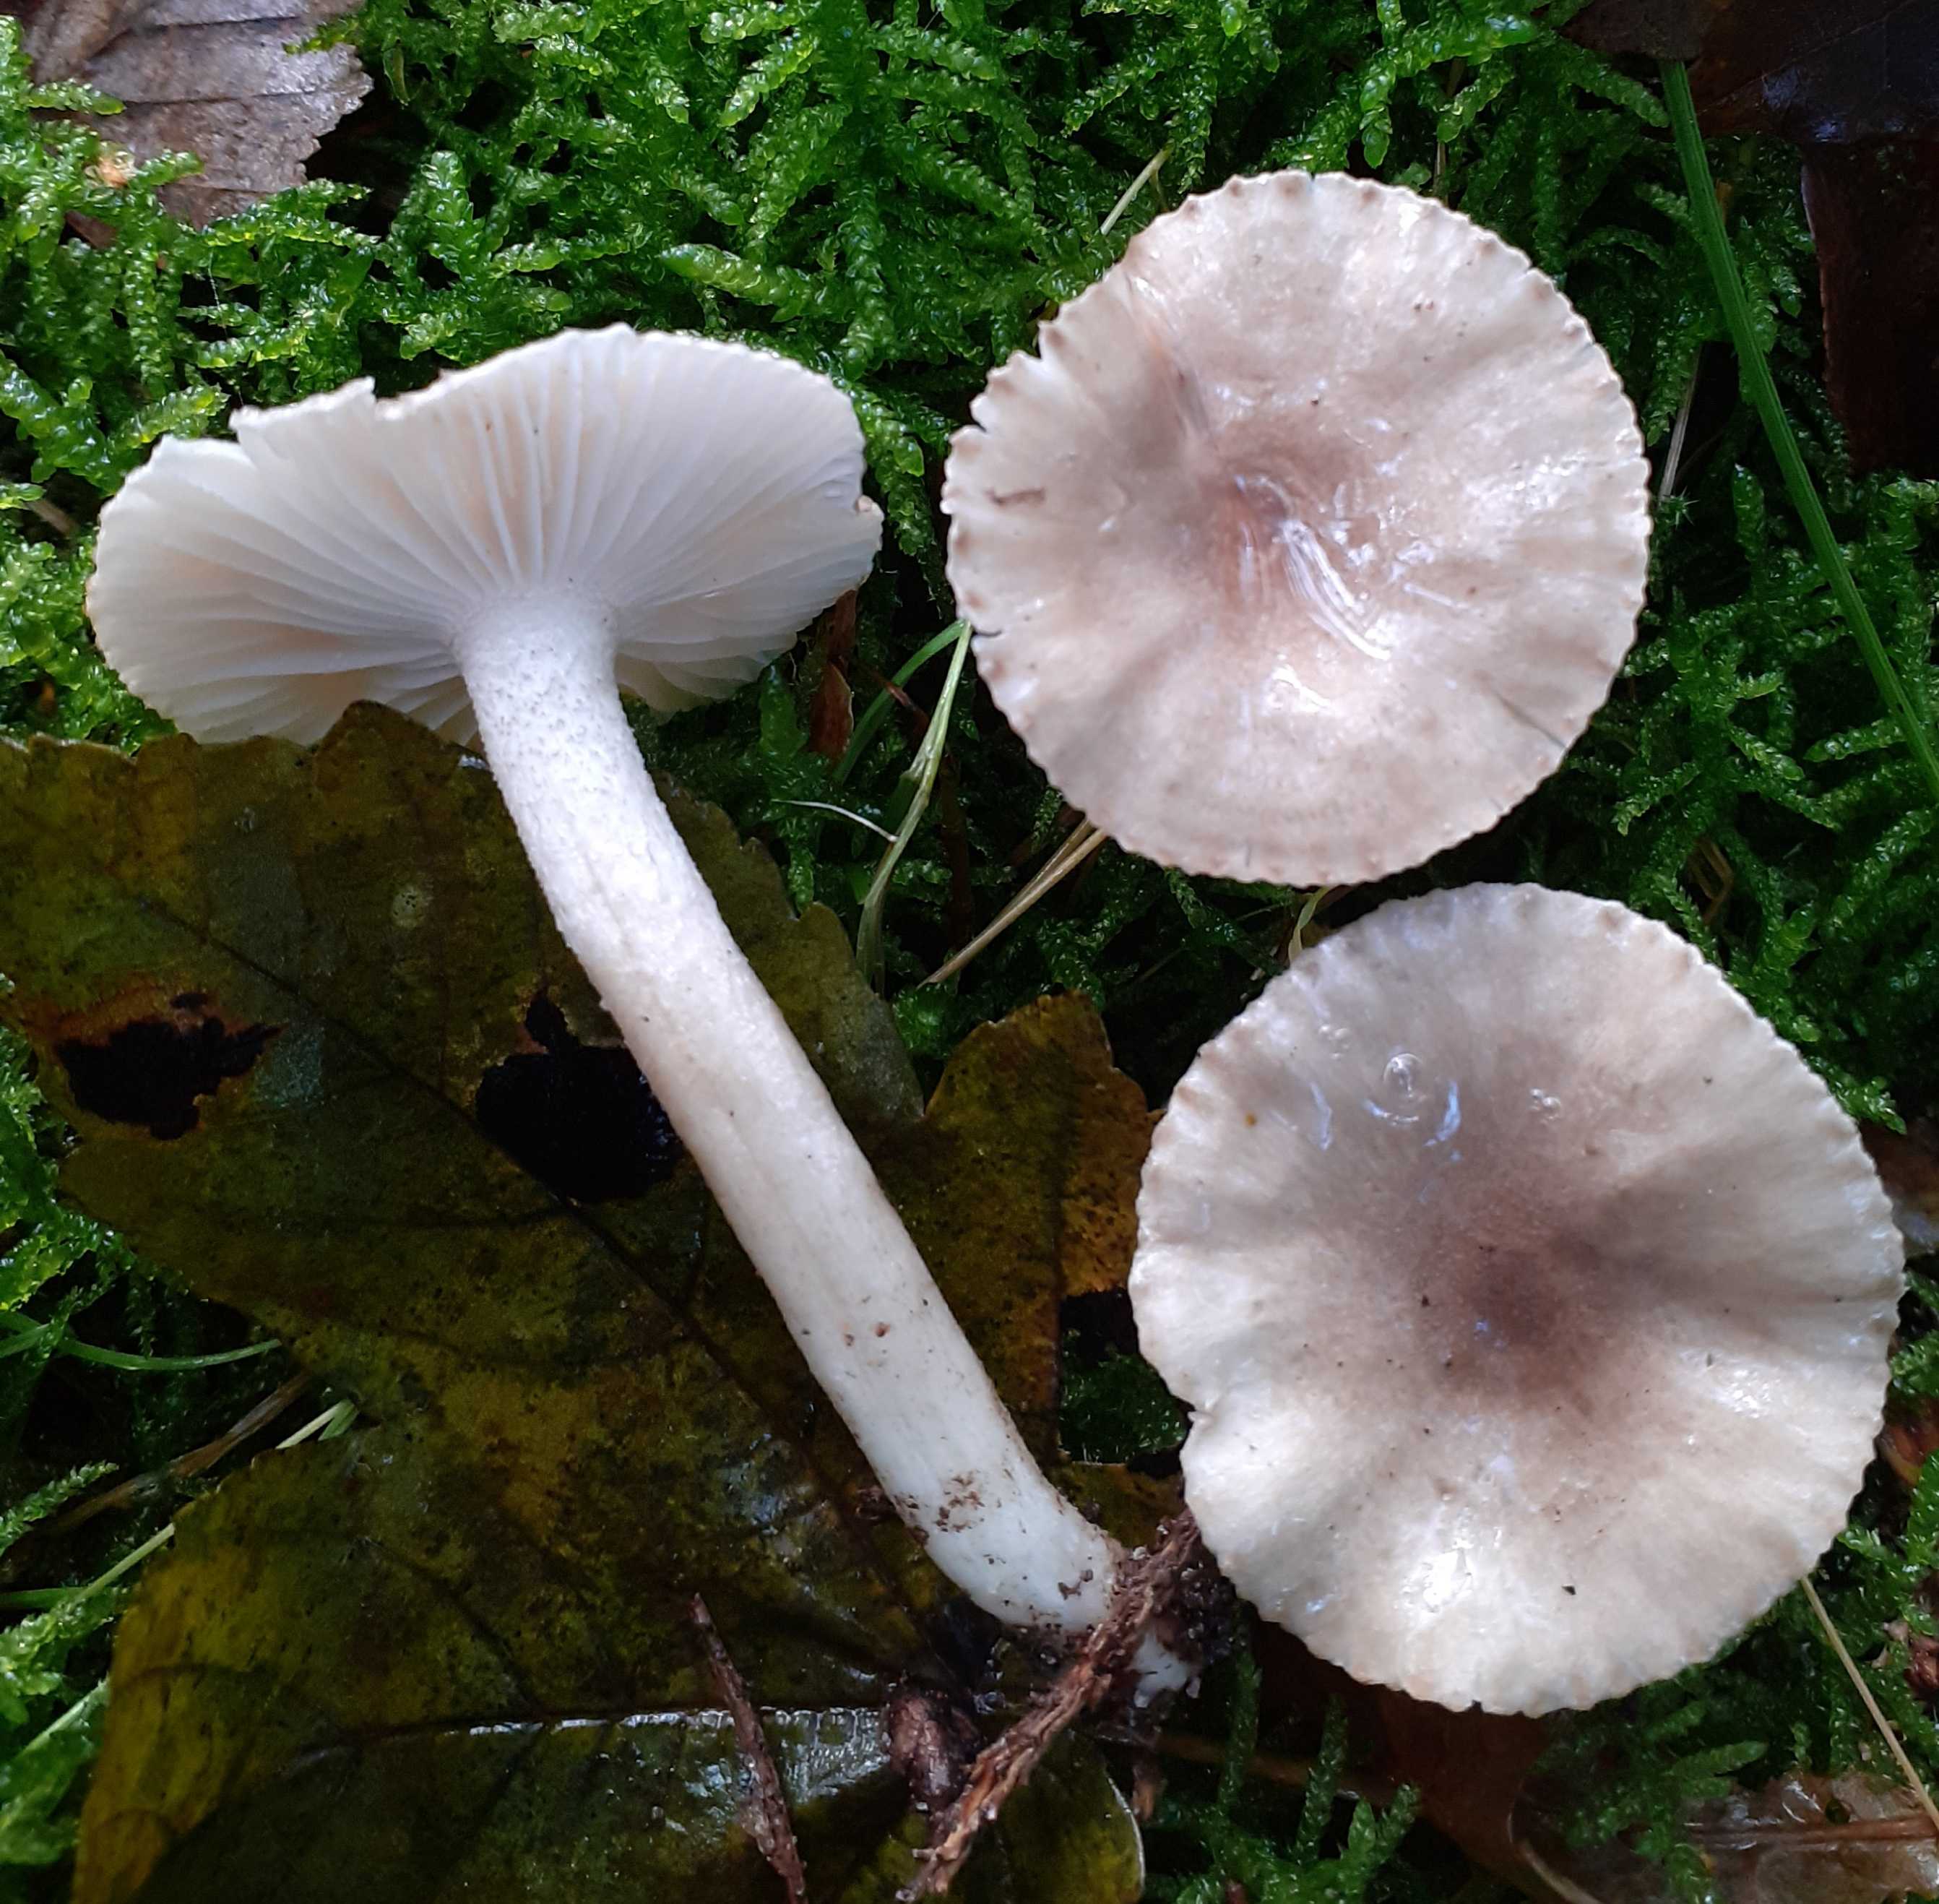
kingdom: Fungi
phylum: Basidiomycota
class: Agaricomycetes
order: Agaricales
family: Hygrophoraceae
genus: Hygrophorus
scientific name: Hygrophorus pustulatus
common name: mørkprikket sneglehat
